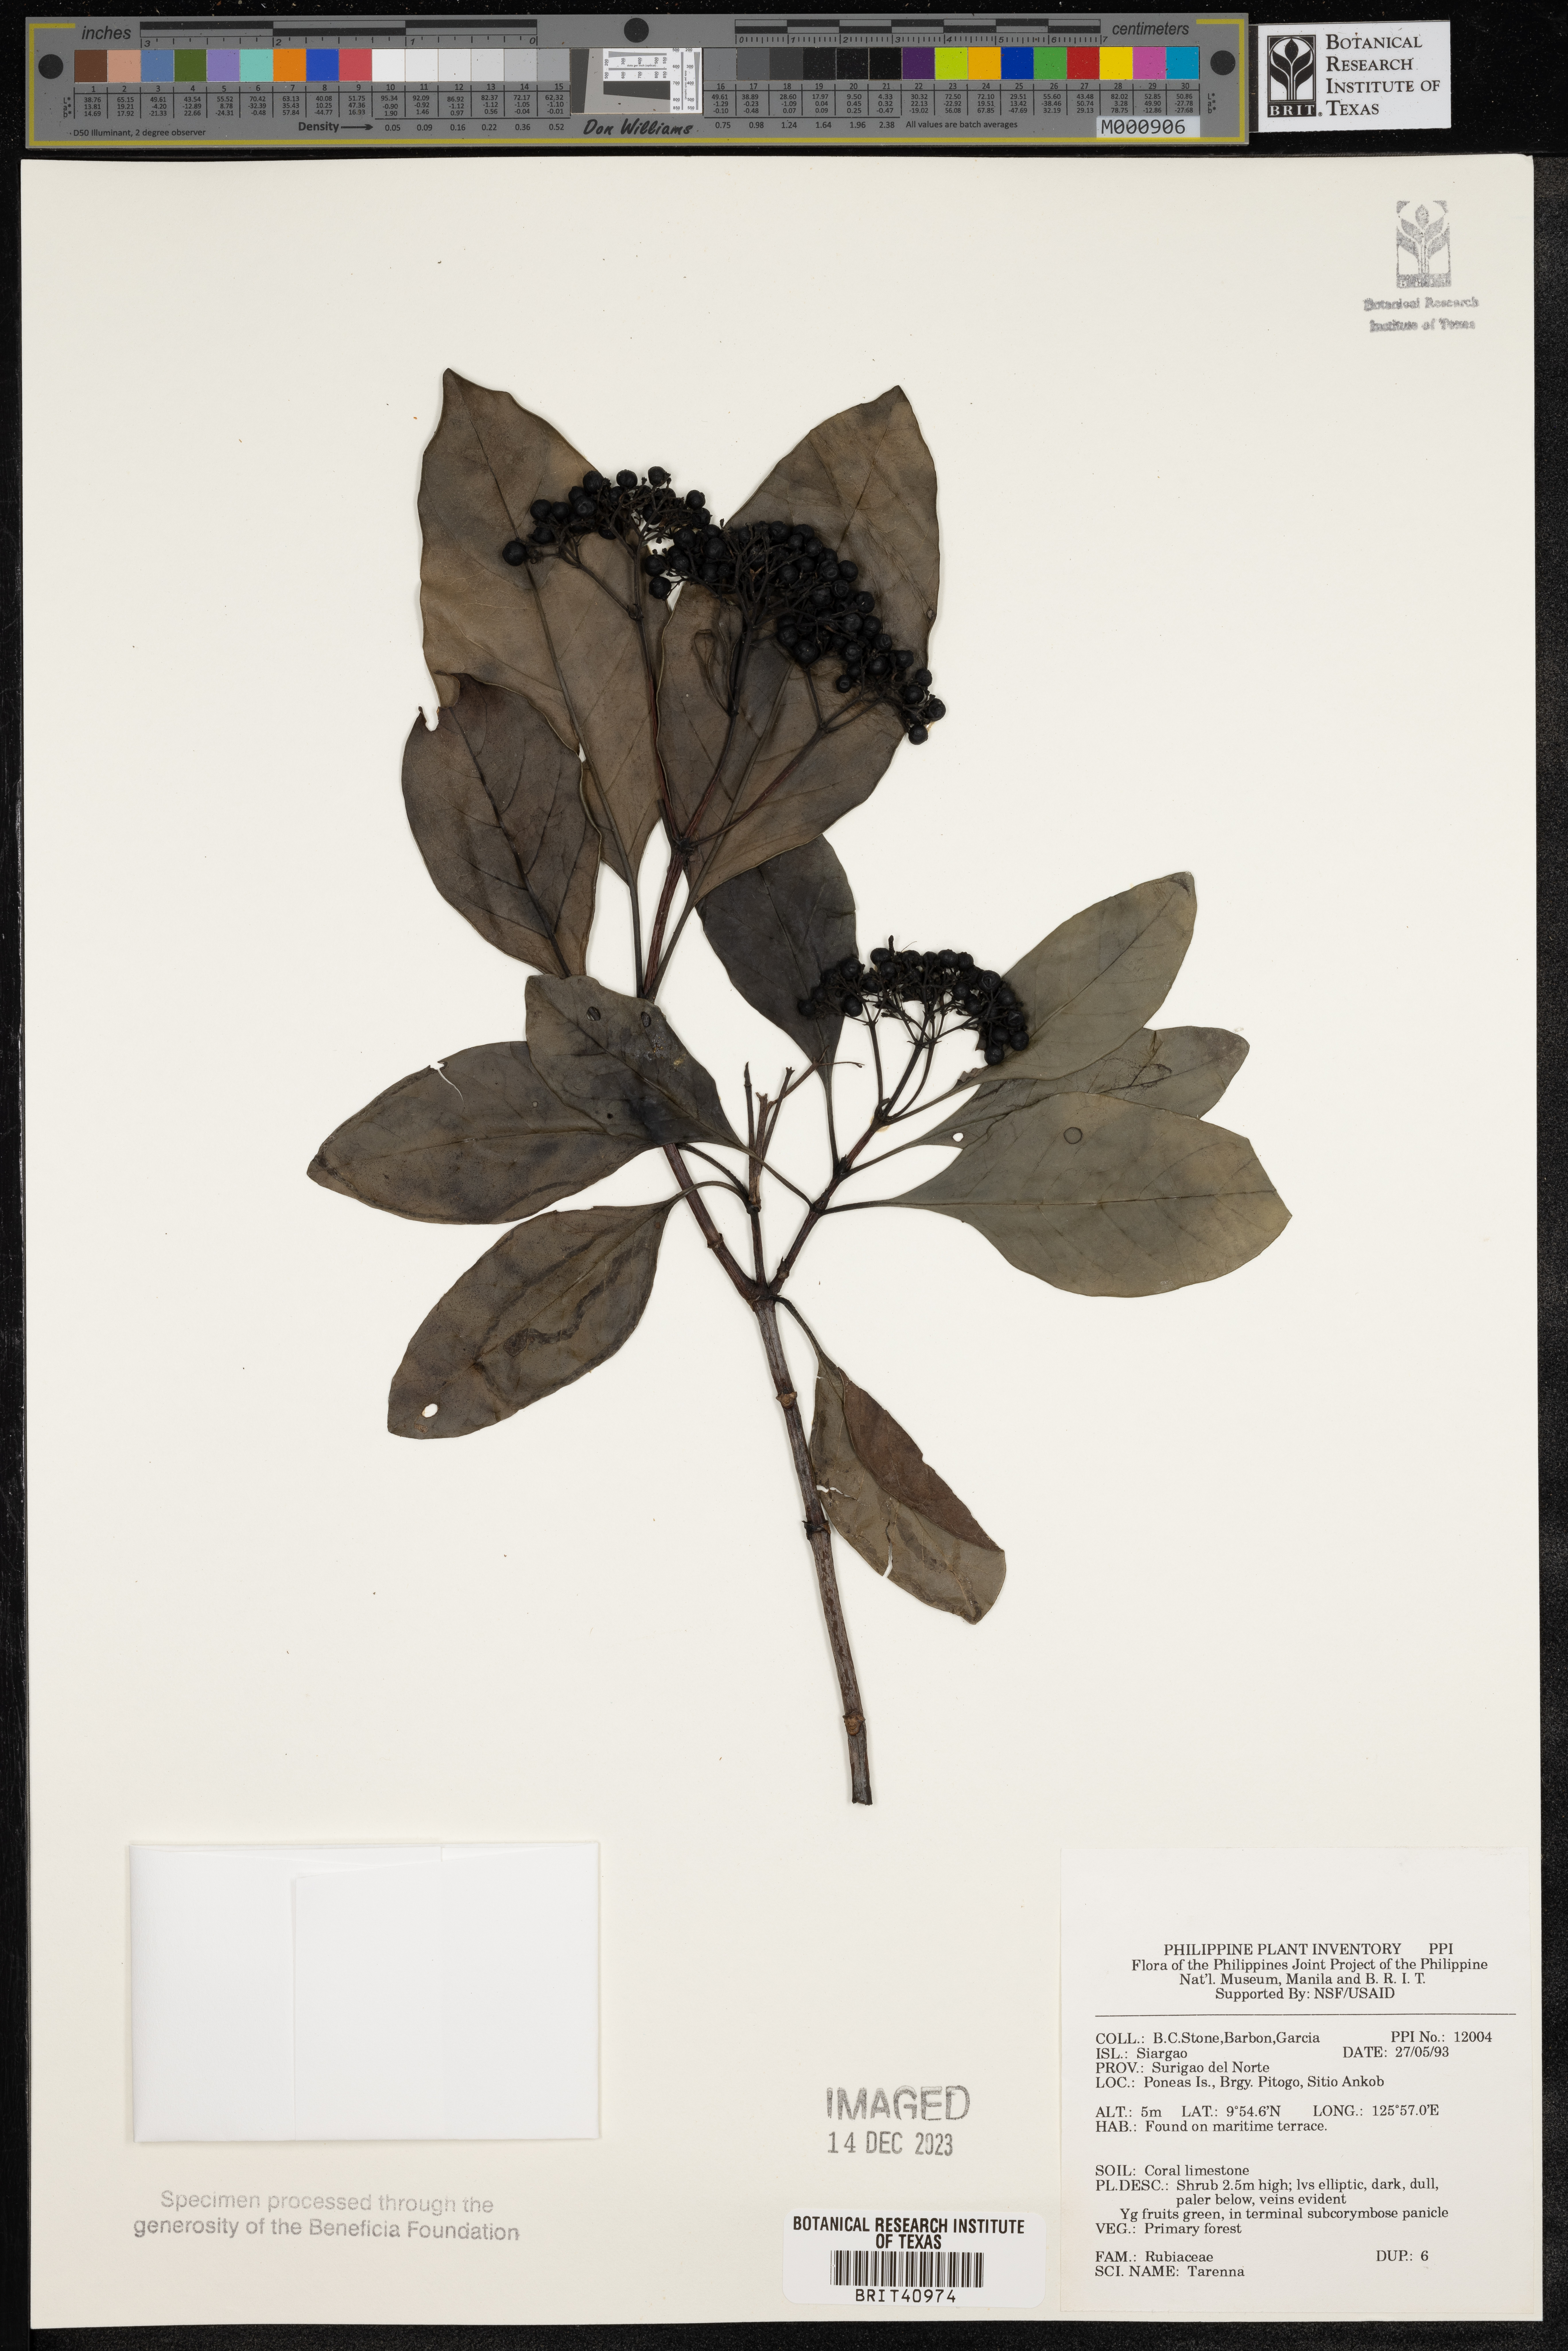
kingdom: Plantae
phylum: Tracheophyta
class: Magnoliopsida
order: Gentianales
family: Rubiaceae
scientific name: Rubiaceae
